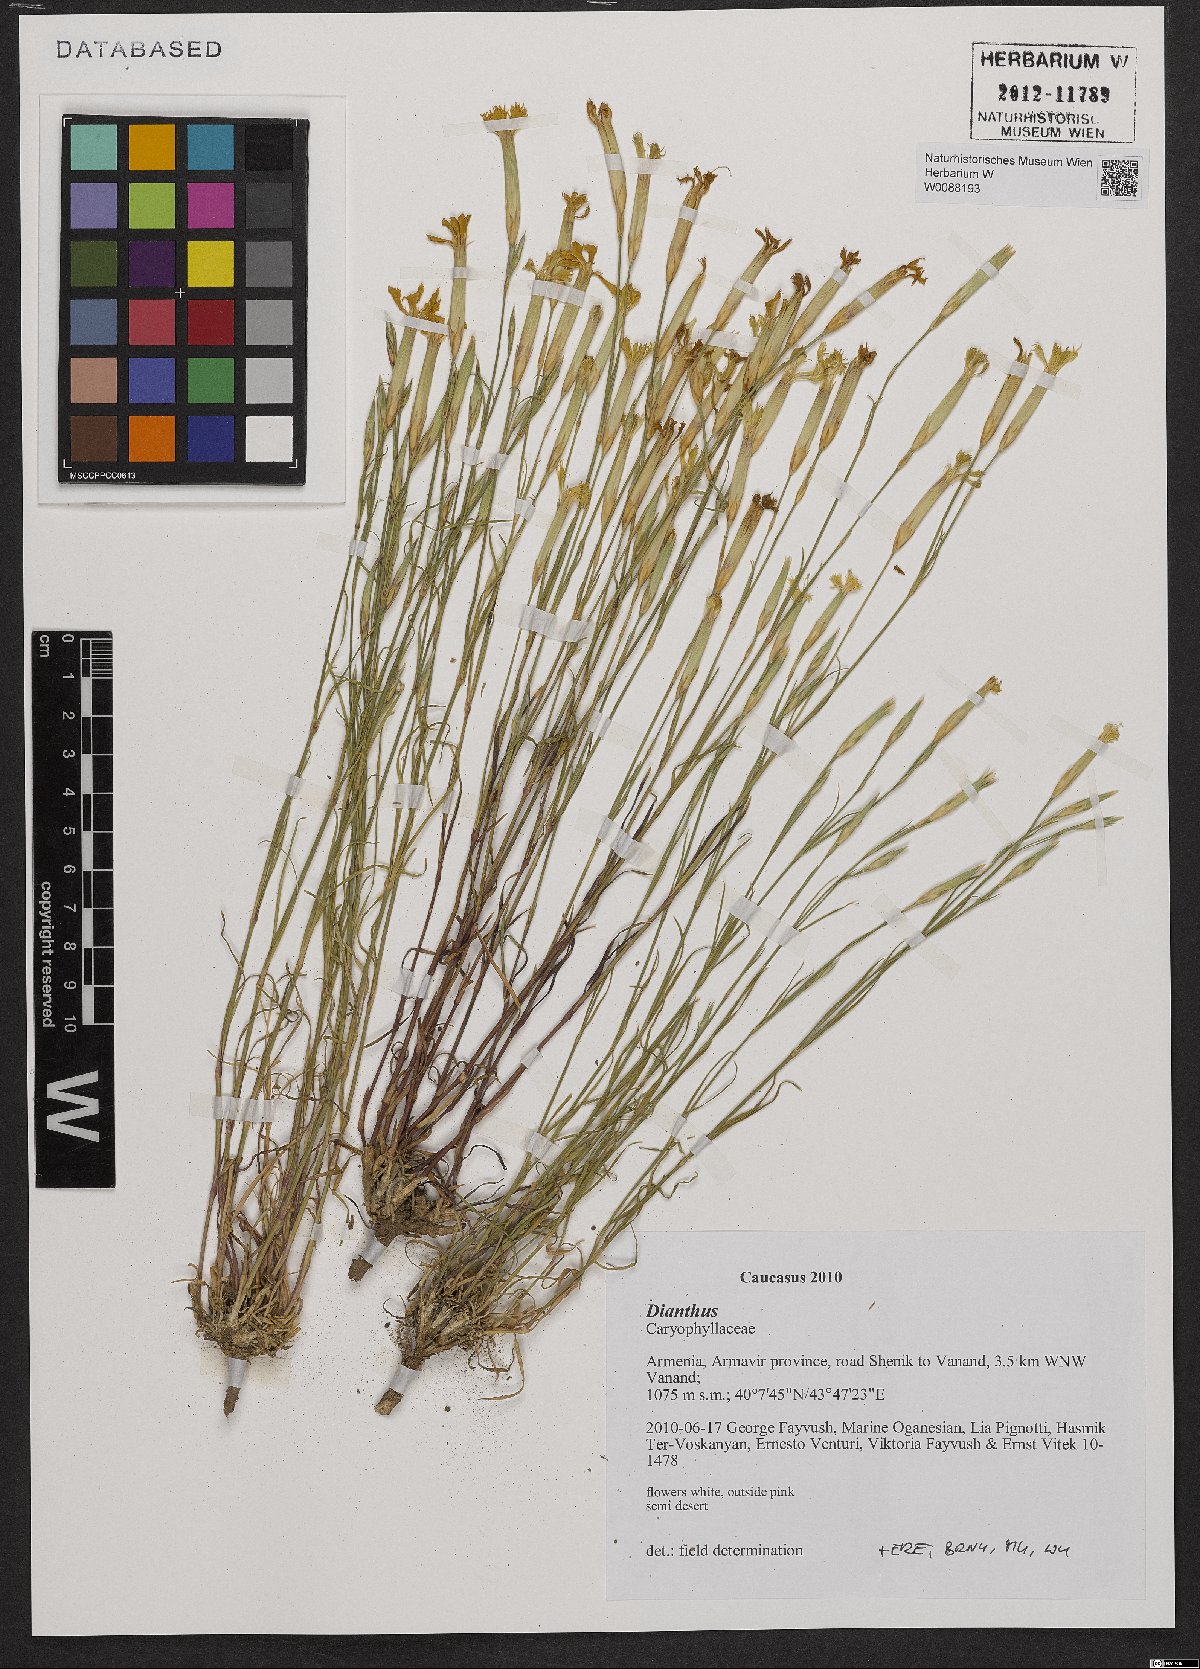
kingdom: Plantae
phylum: Tracheophyta
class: Magnoliopsida
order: Caryophyllales
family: Caryophyllaceae
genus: Dianthus
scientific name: Dianthus
